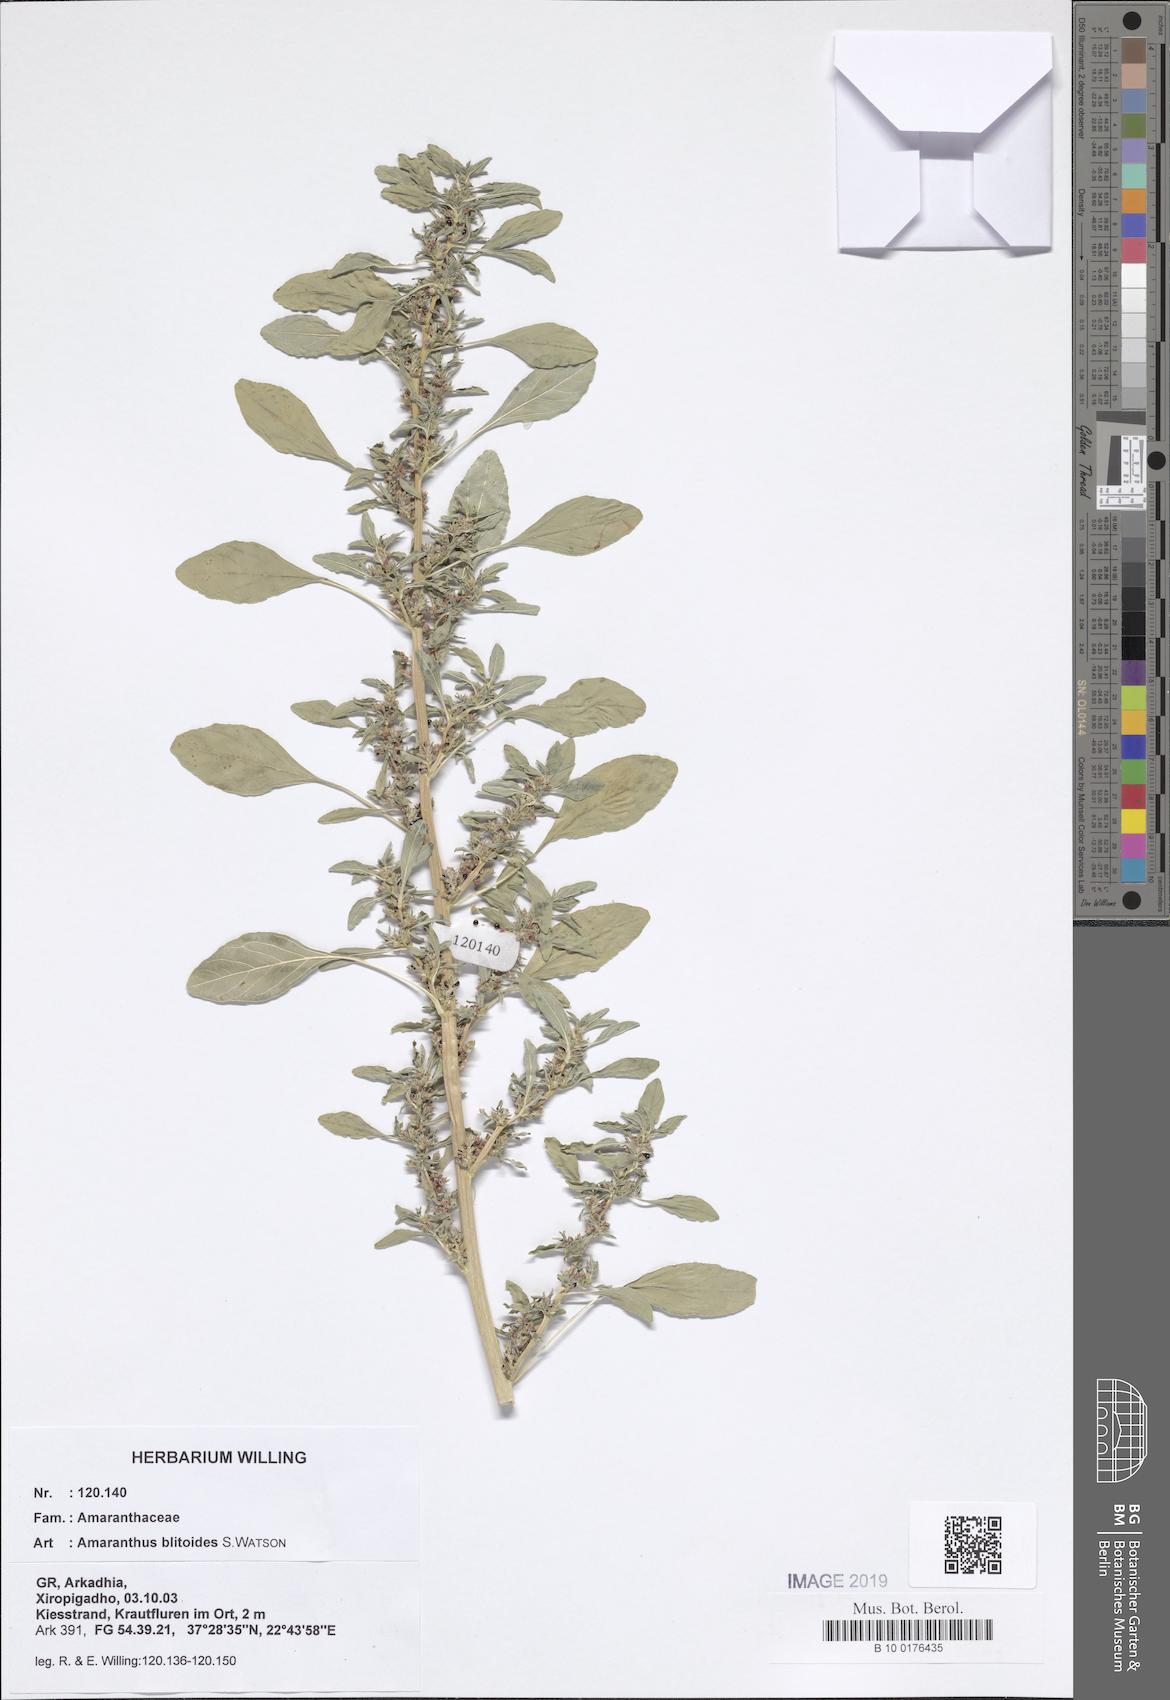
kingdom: Plantae
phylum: Tracheophyta
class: Magnoliopsida
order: Caryophyllales
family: Amaranthaceae
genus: Amaranthus
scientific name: Amaranthus blitoides
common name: Prostrate pigweed
